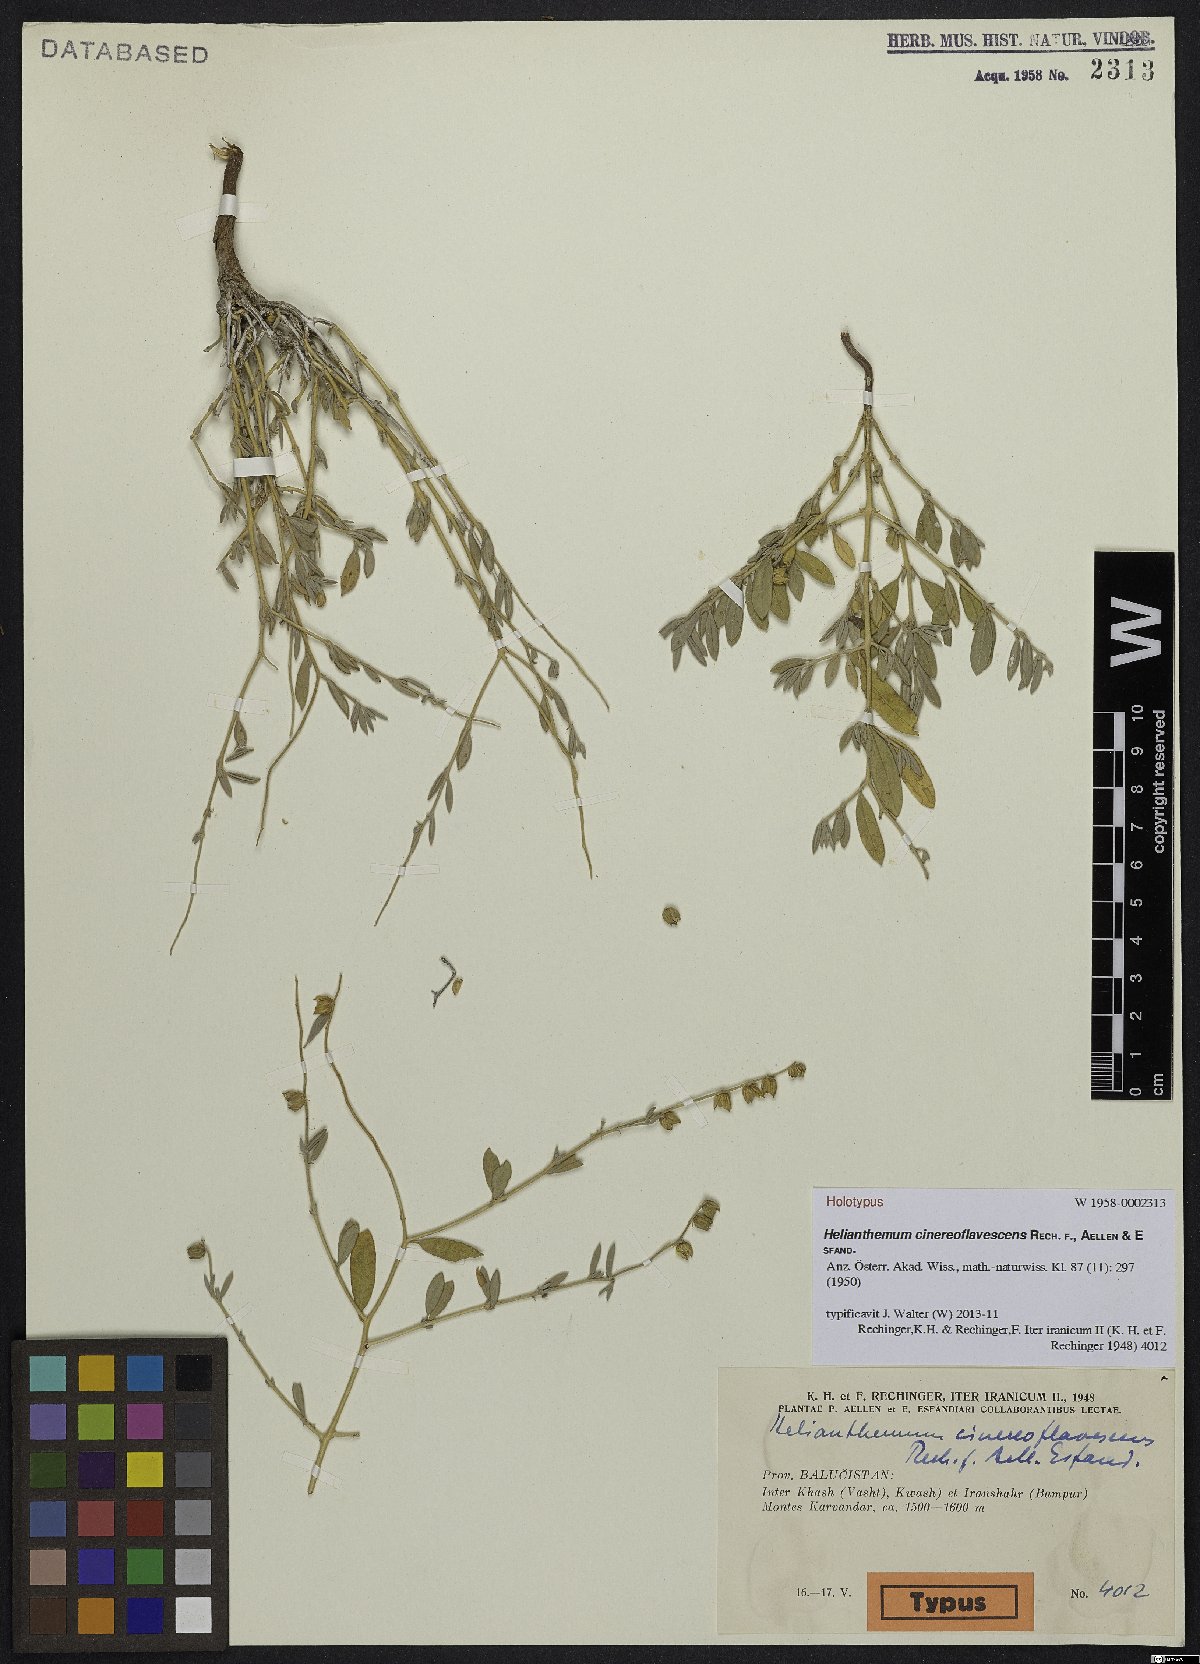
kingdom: Plantae
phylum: Tracheophyta
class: Magnoliopsida
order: Malvales
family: Cistaceae
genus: Helianthemum
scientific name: Helianthemum cinereoflavescens
